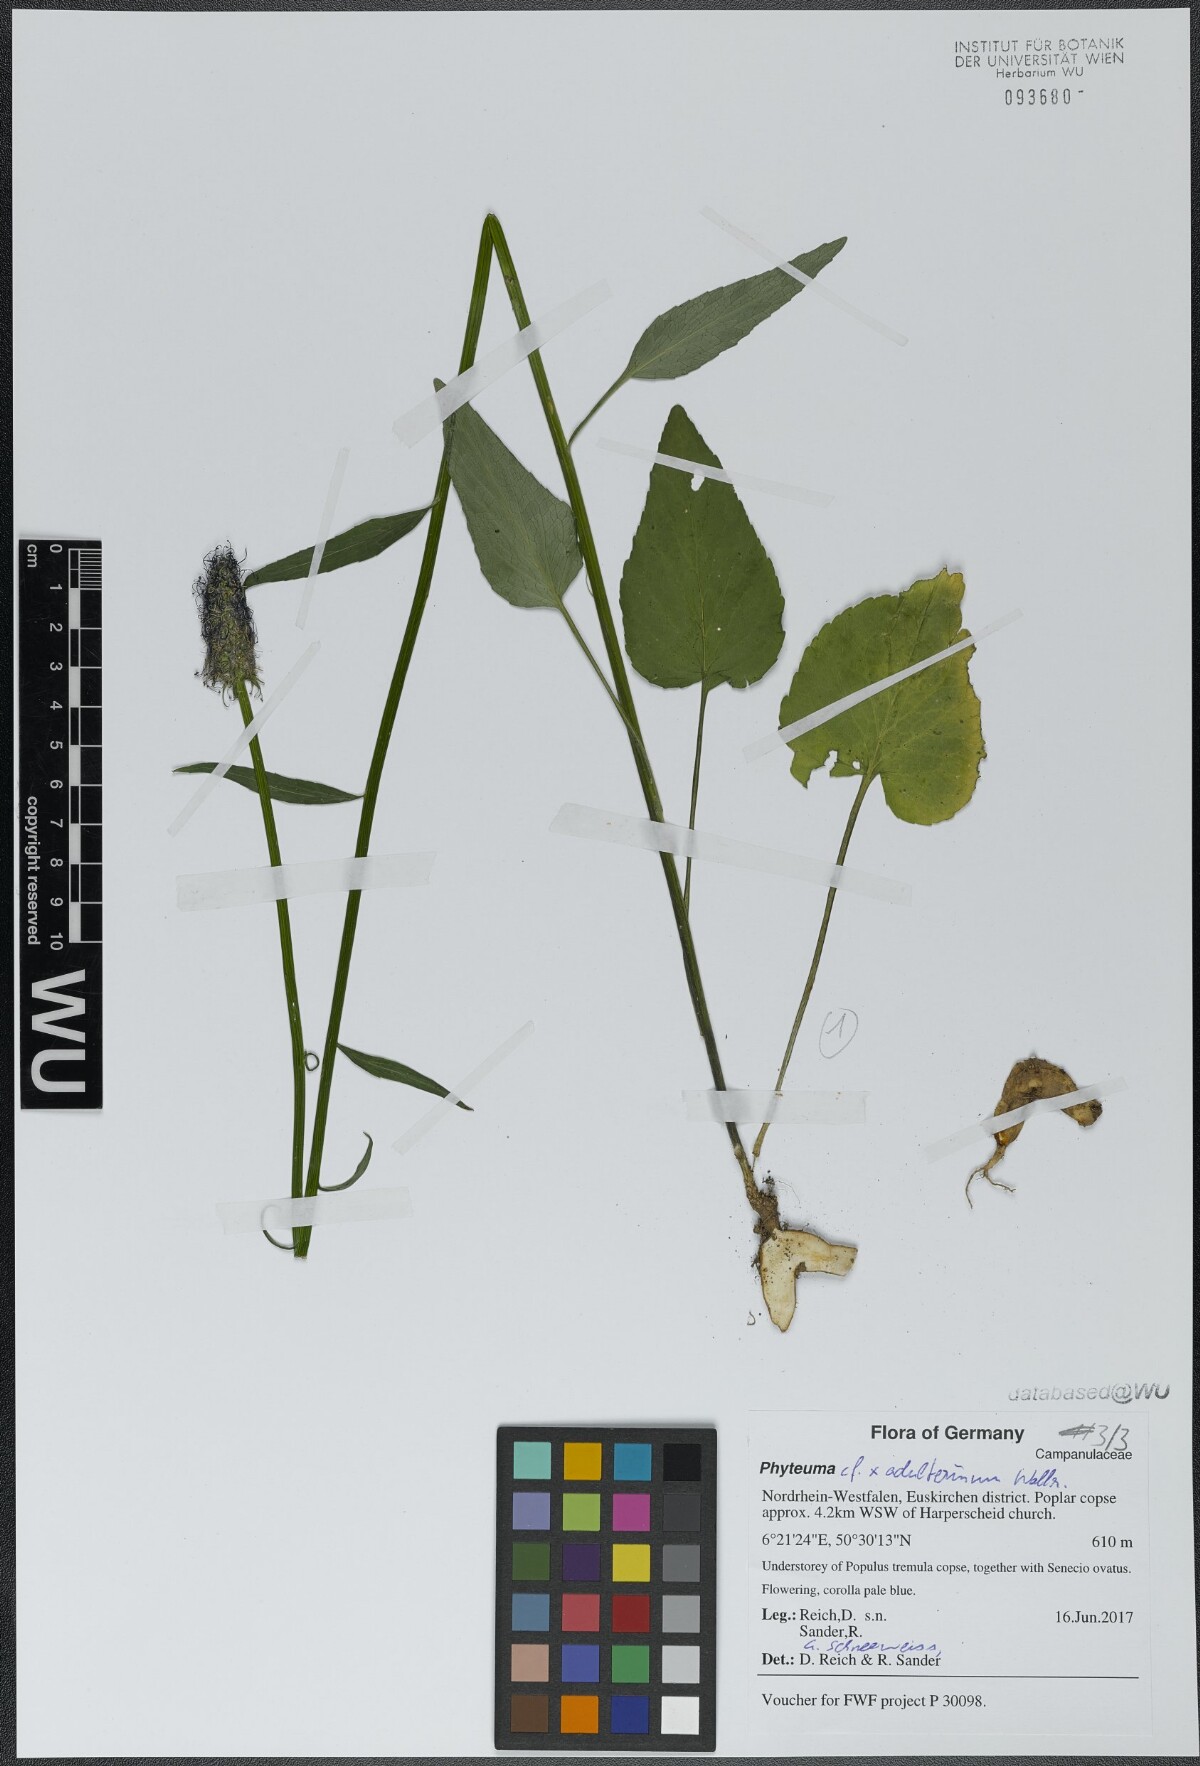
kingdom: Plantae
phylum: Tracheophyta
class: Magnoliopsida
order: Asterales
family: Campanulaceae
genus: Phyteuma
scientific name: Phyteuma
